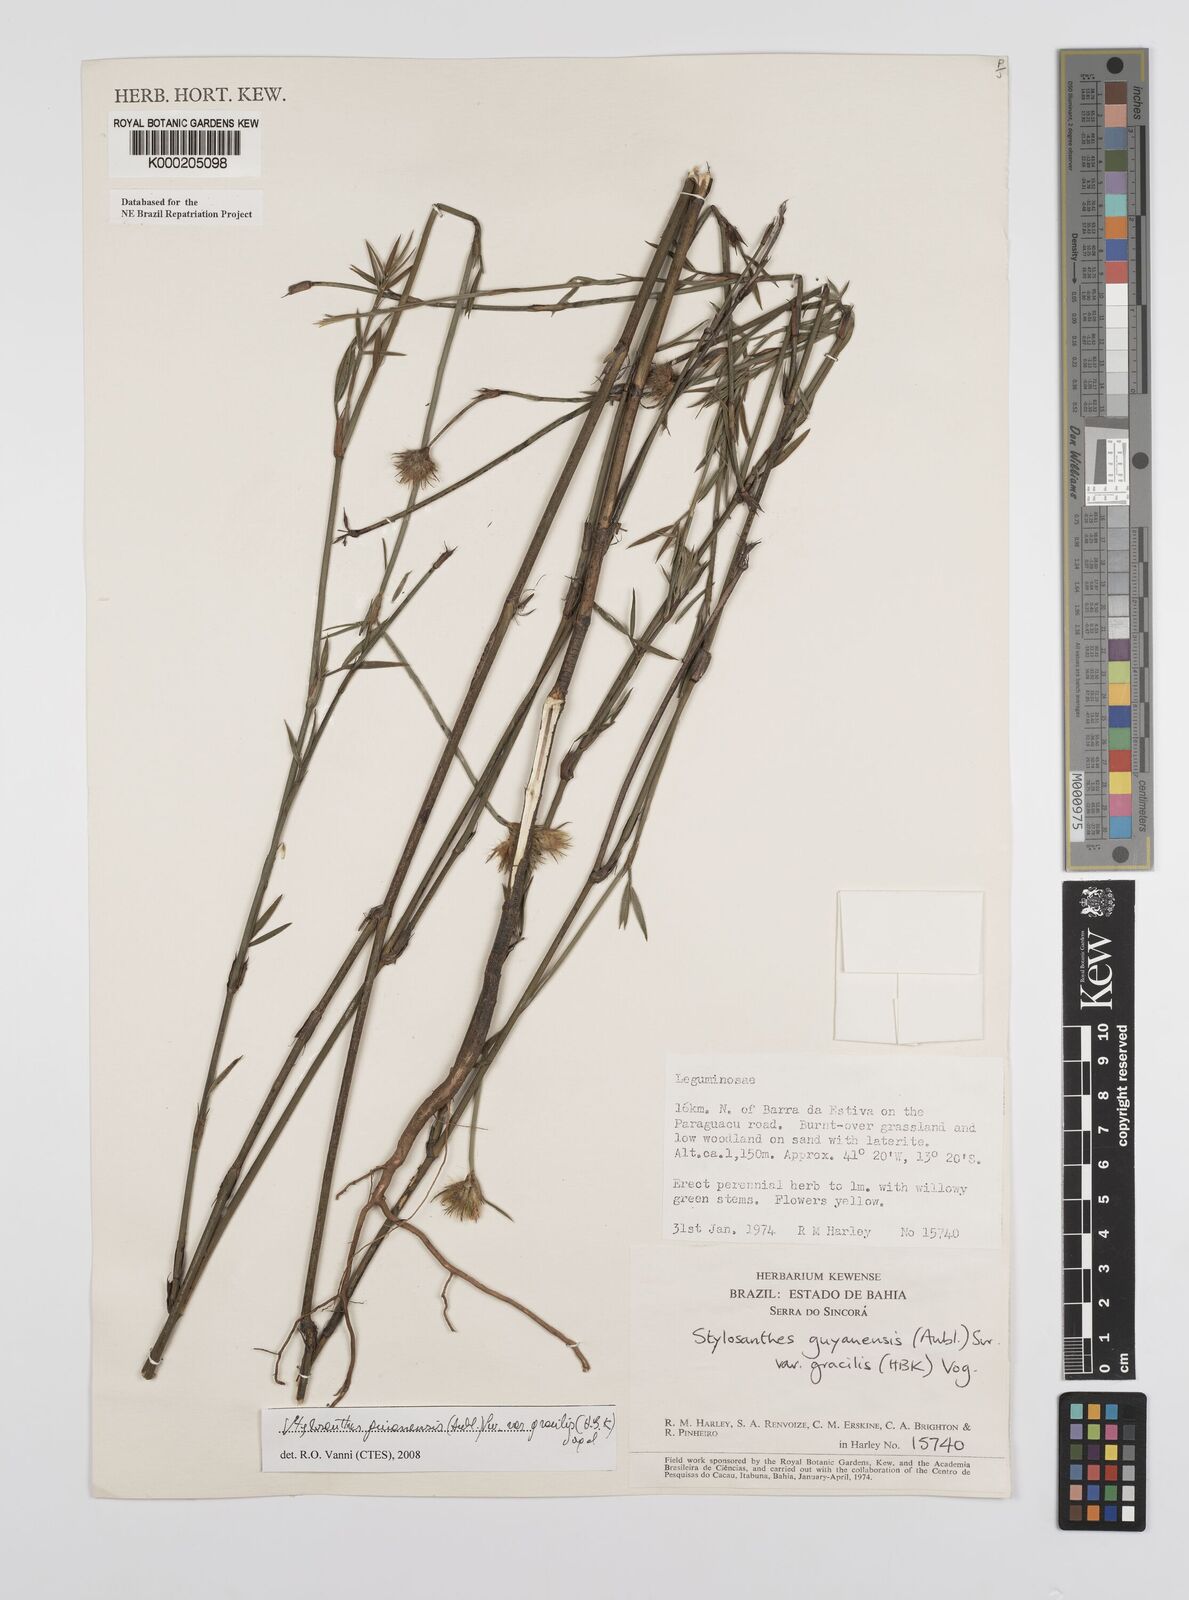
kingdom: Plantae
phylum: Tracheophyta
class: Magnoliopsida
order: Fabales
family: Fabaceae
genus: Stylosanthes
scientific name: Stylosanthes guianensis
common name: Pencil flower
